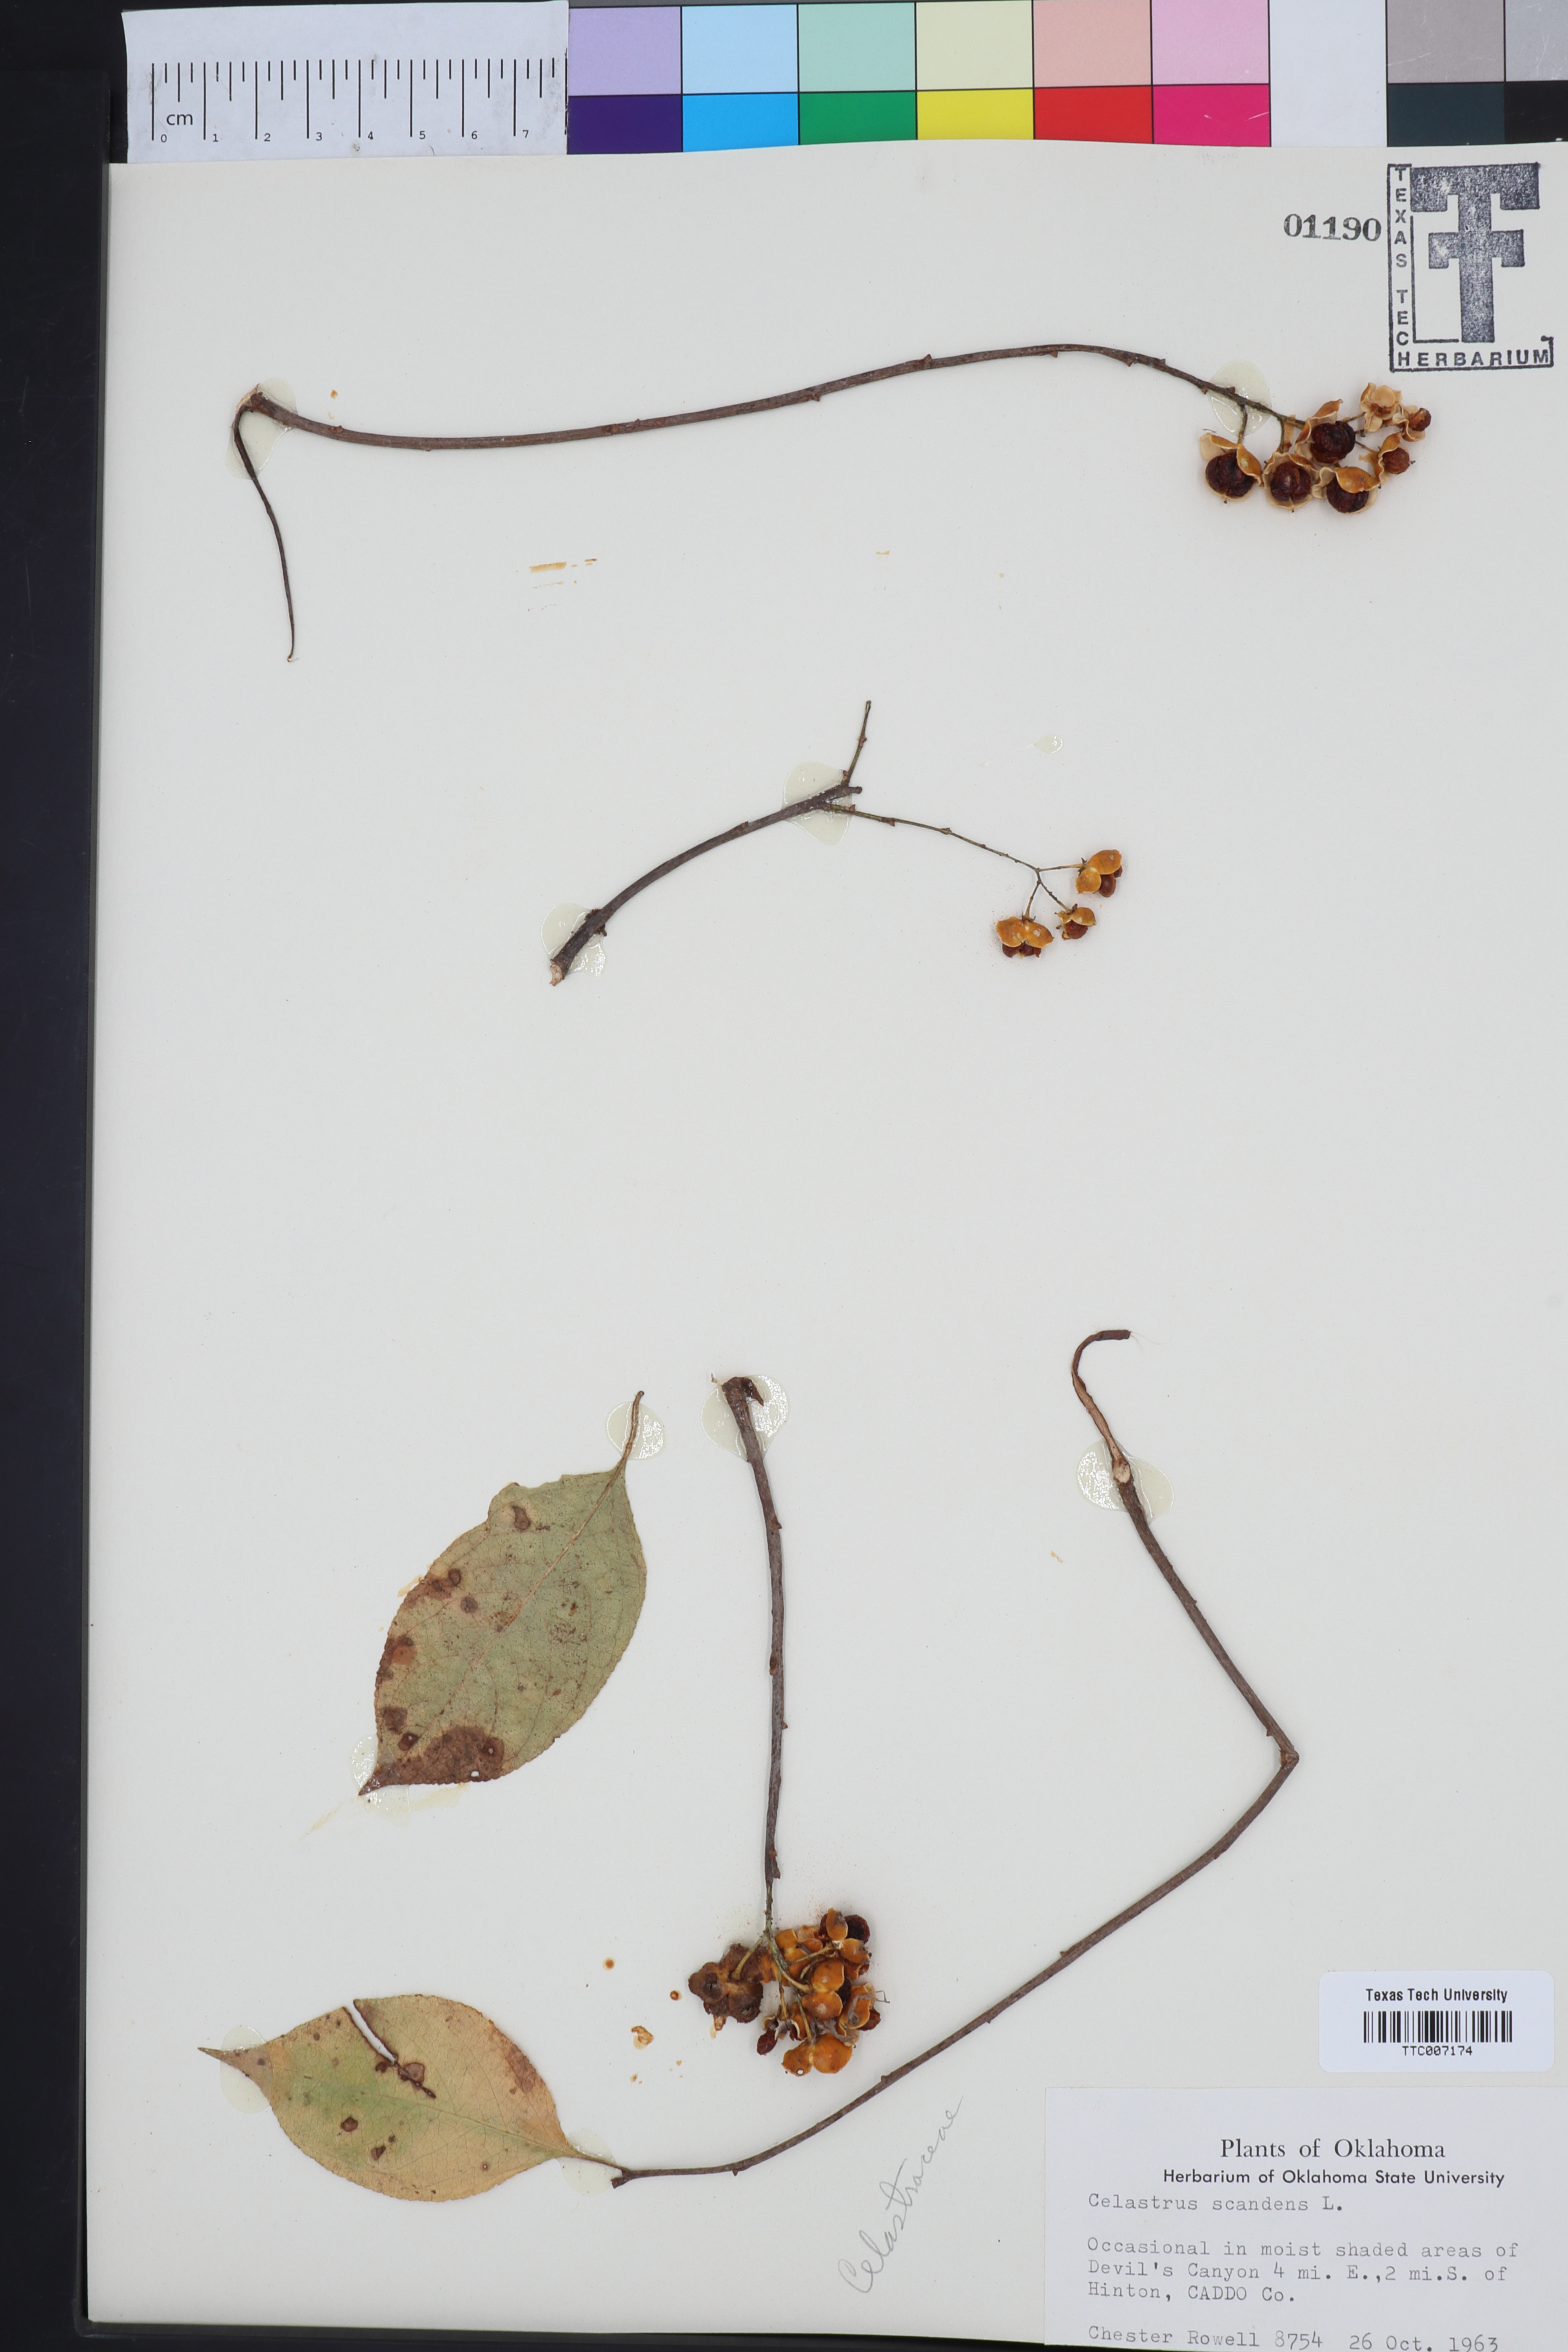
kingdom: Plantae
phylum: Tracheophyta
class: Magnoliopsida
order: Celastrales
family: Celastraceae
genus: Celastrus
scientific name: Celastrus scandens
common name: American bittersweet
